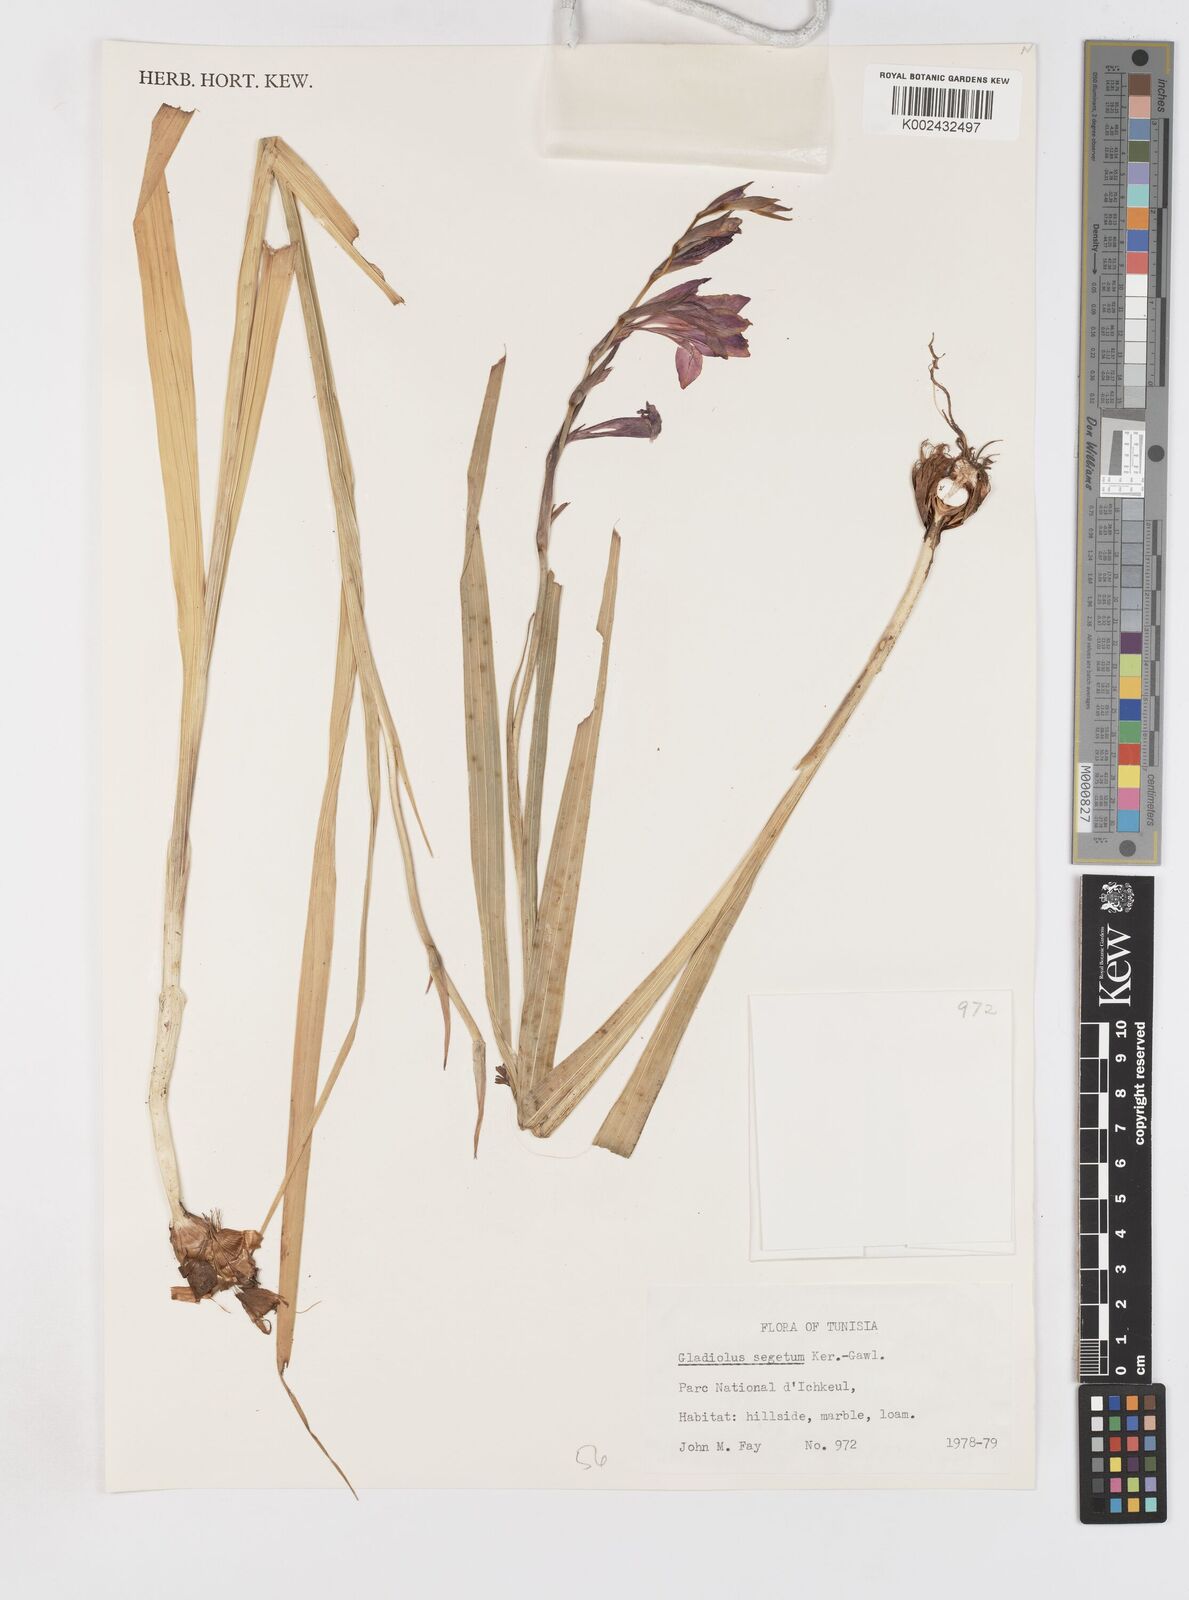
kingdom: Plantae
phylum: Tracheophyta
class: Liliopsida
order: Asparagales
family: Iridaceae
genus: Gladiolus
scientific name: Gladiolus italicus
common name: Field gladiolus
